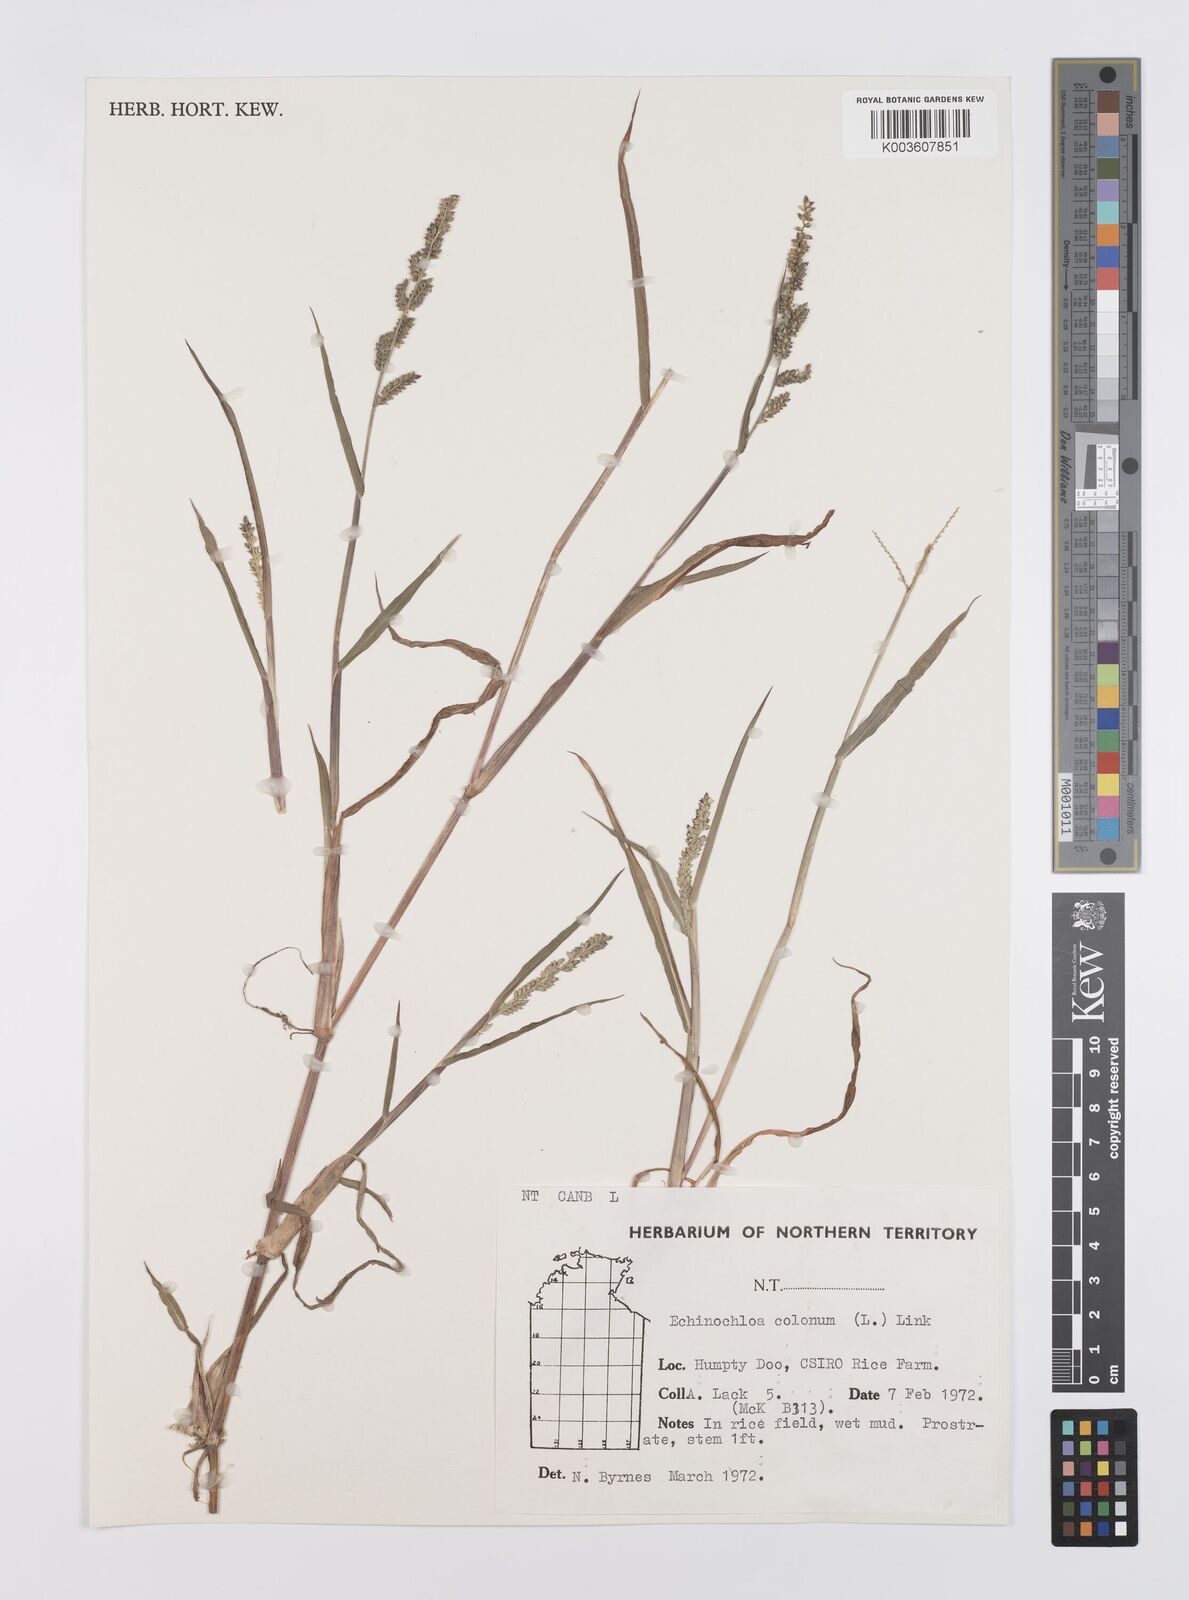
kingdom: Plantae
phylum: Tracheophyta
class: Liliopsida
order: Poales
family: Poaceae
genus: Echinochloa
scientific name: Echinochloa colonum
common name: Jungle rice
